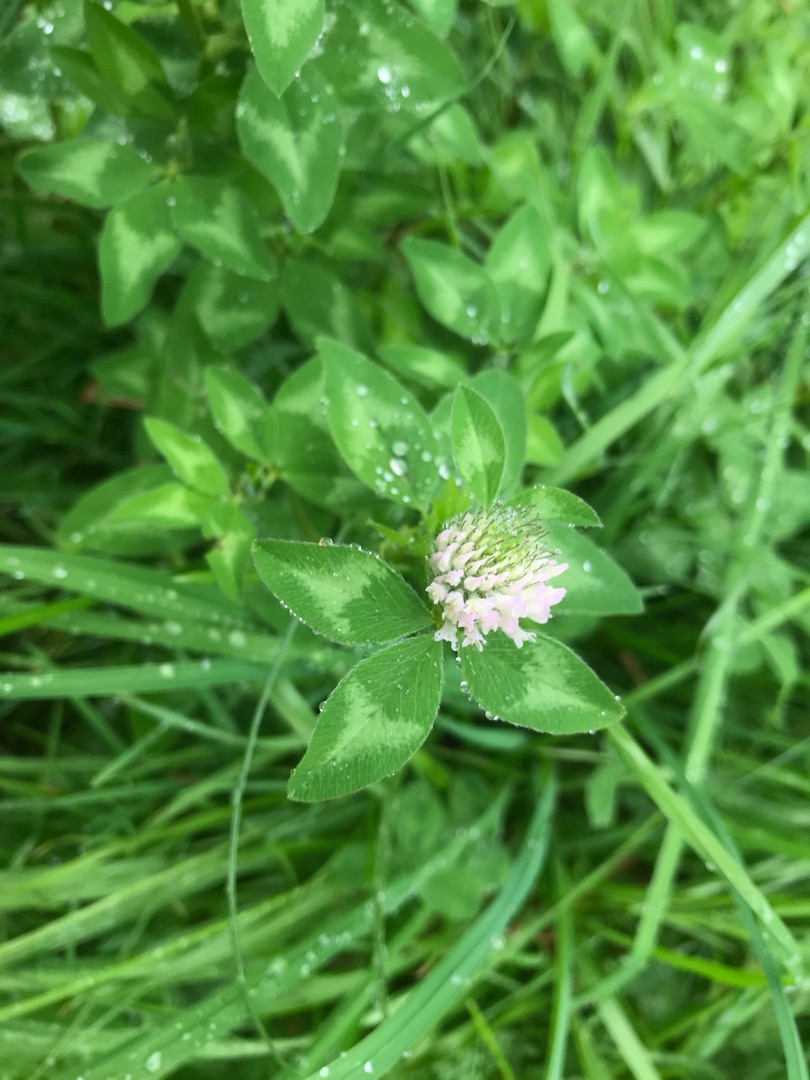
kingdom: Plantae
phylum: Tracheophyta
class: Magnoliopsida
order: Fabales
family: Fabaceae
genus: Trifolium
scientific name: Trifolium pratense
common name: Rød-kløver
